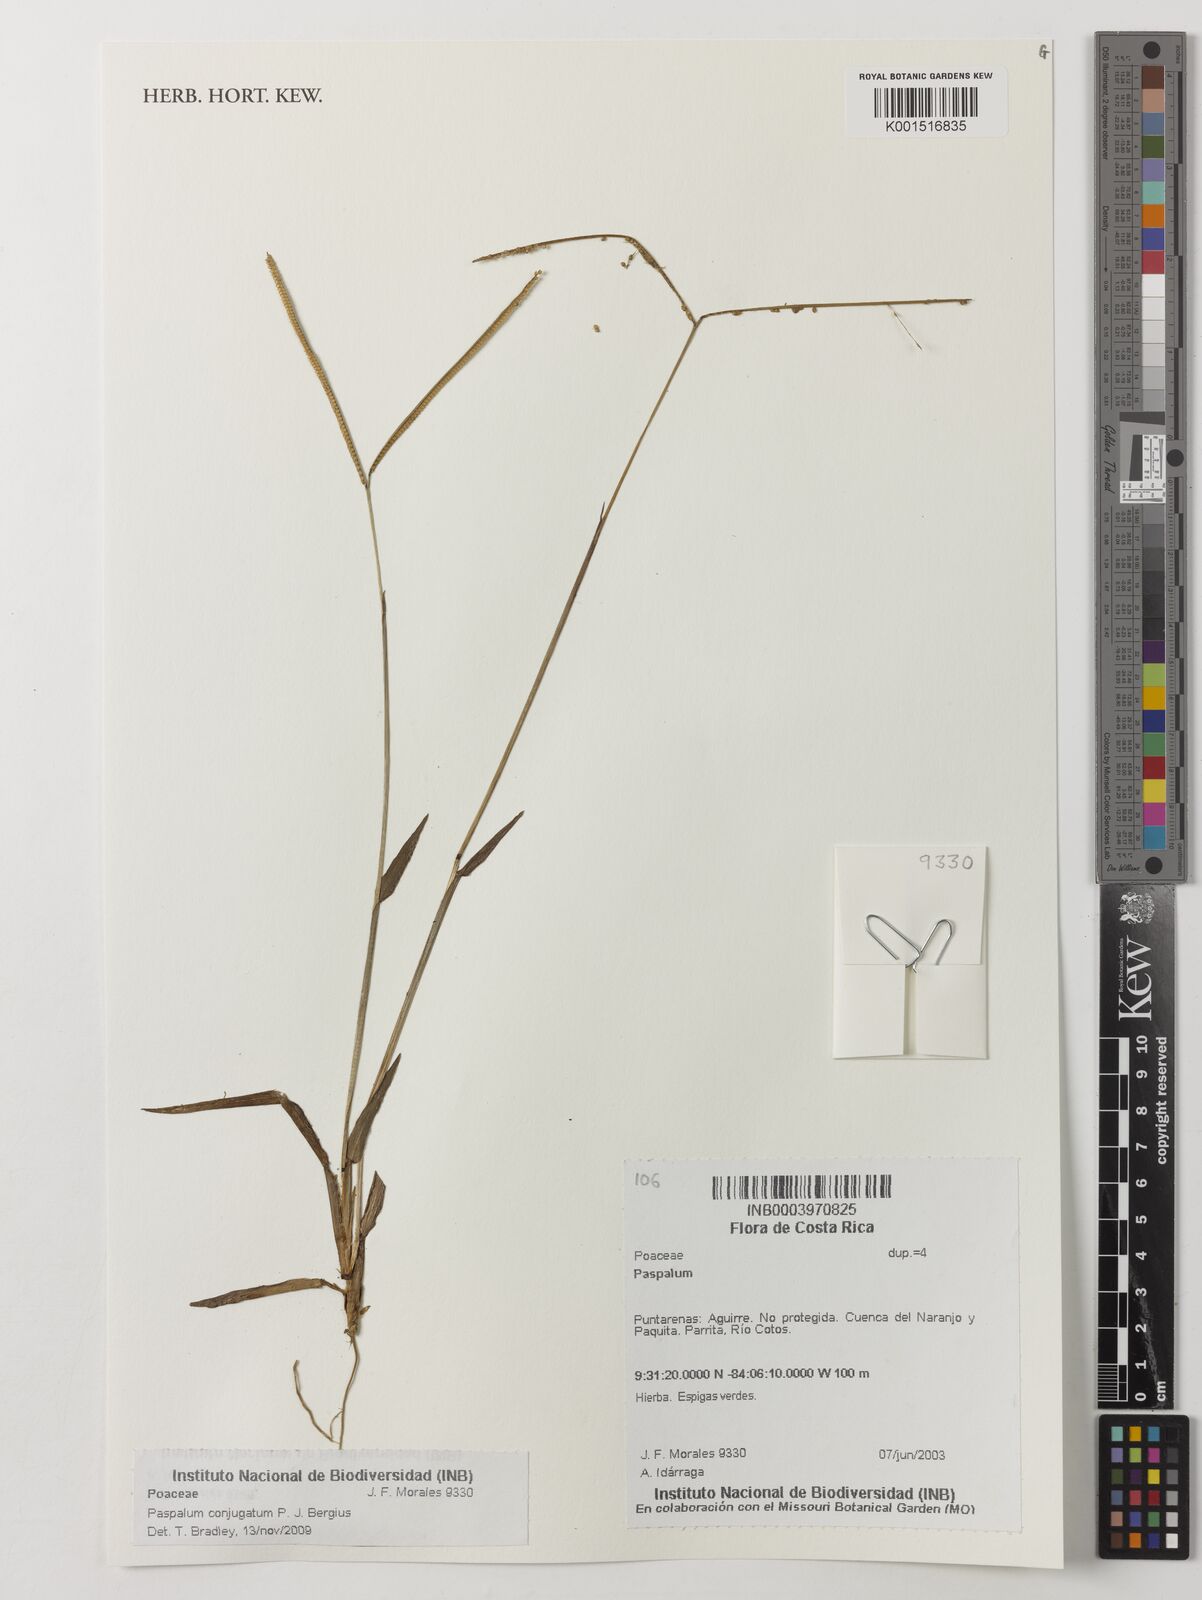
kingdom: Plantae
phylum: Tracheophyta
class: Liliopsida
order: Poales
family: Poaceae
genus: Paspalum
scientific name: Paspalum conjugatum
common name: Hilograss
